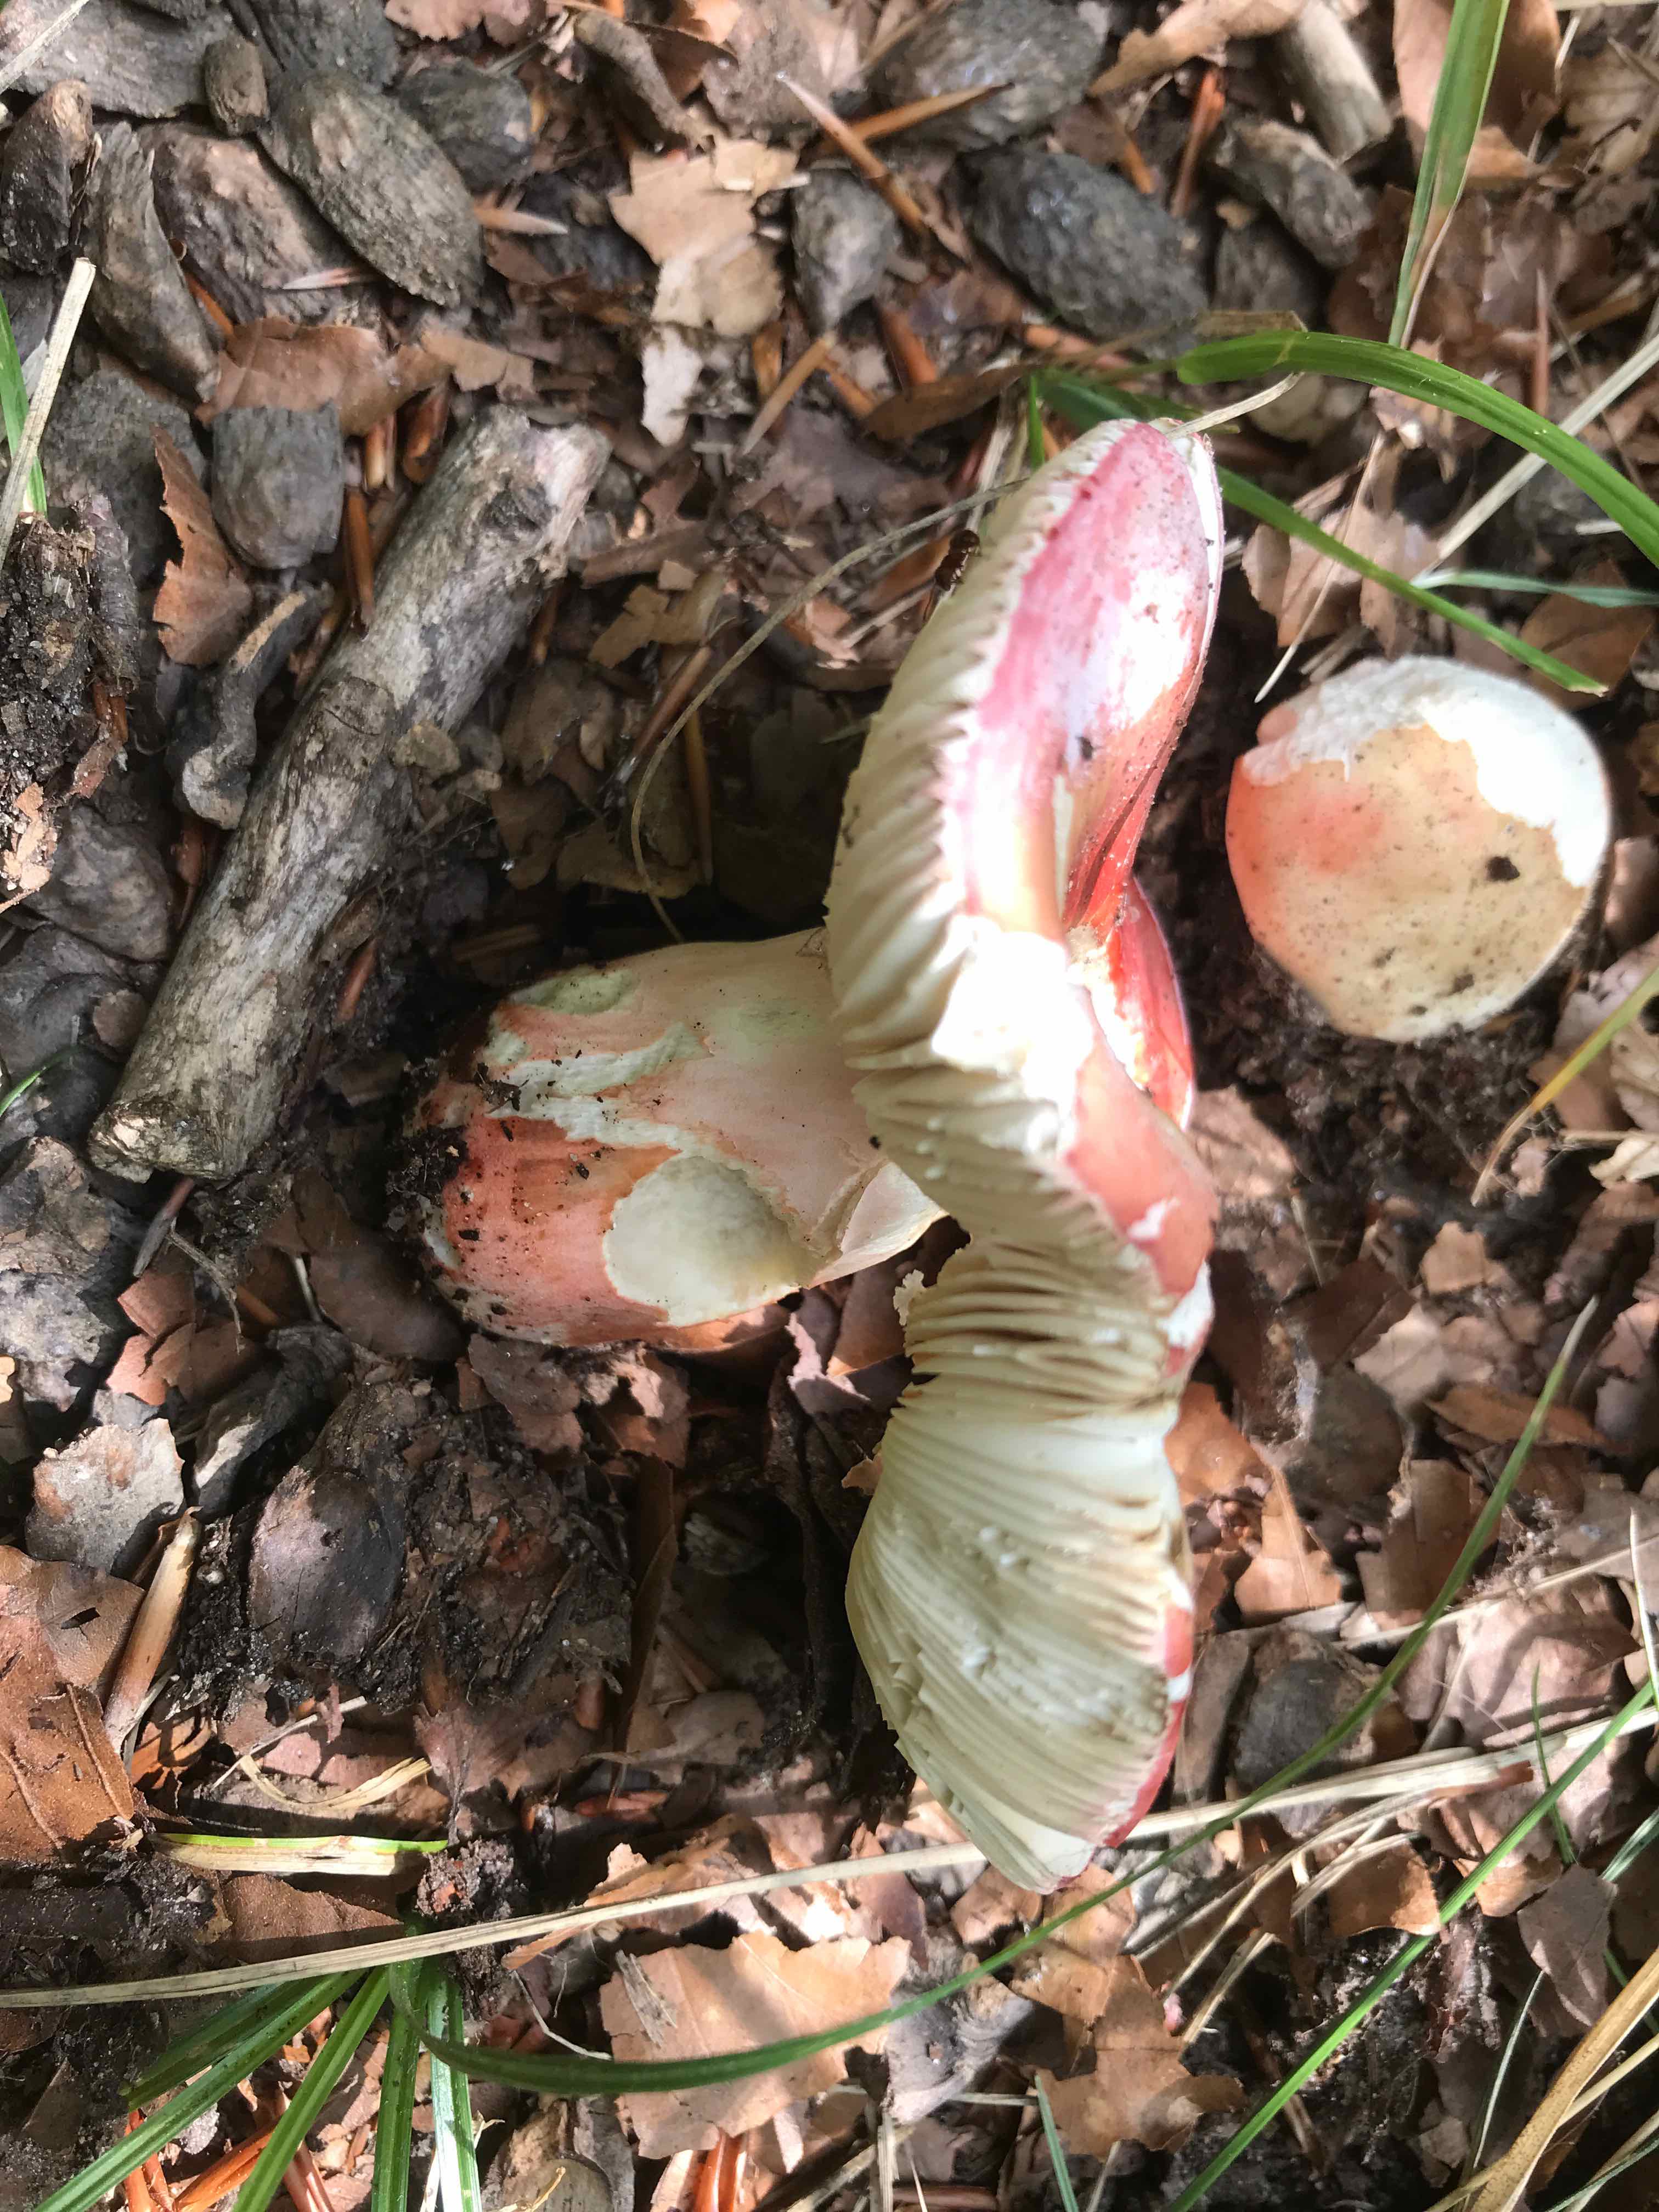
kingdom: Fungi
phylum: Basidiomycota
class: Agaricomycetes
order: Russulales
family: Russulaceae
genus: Russula
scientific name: Russula rosea
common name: fastkødet skørhat
